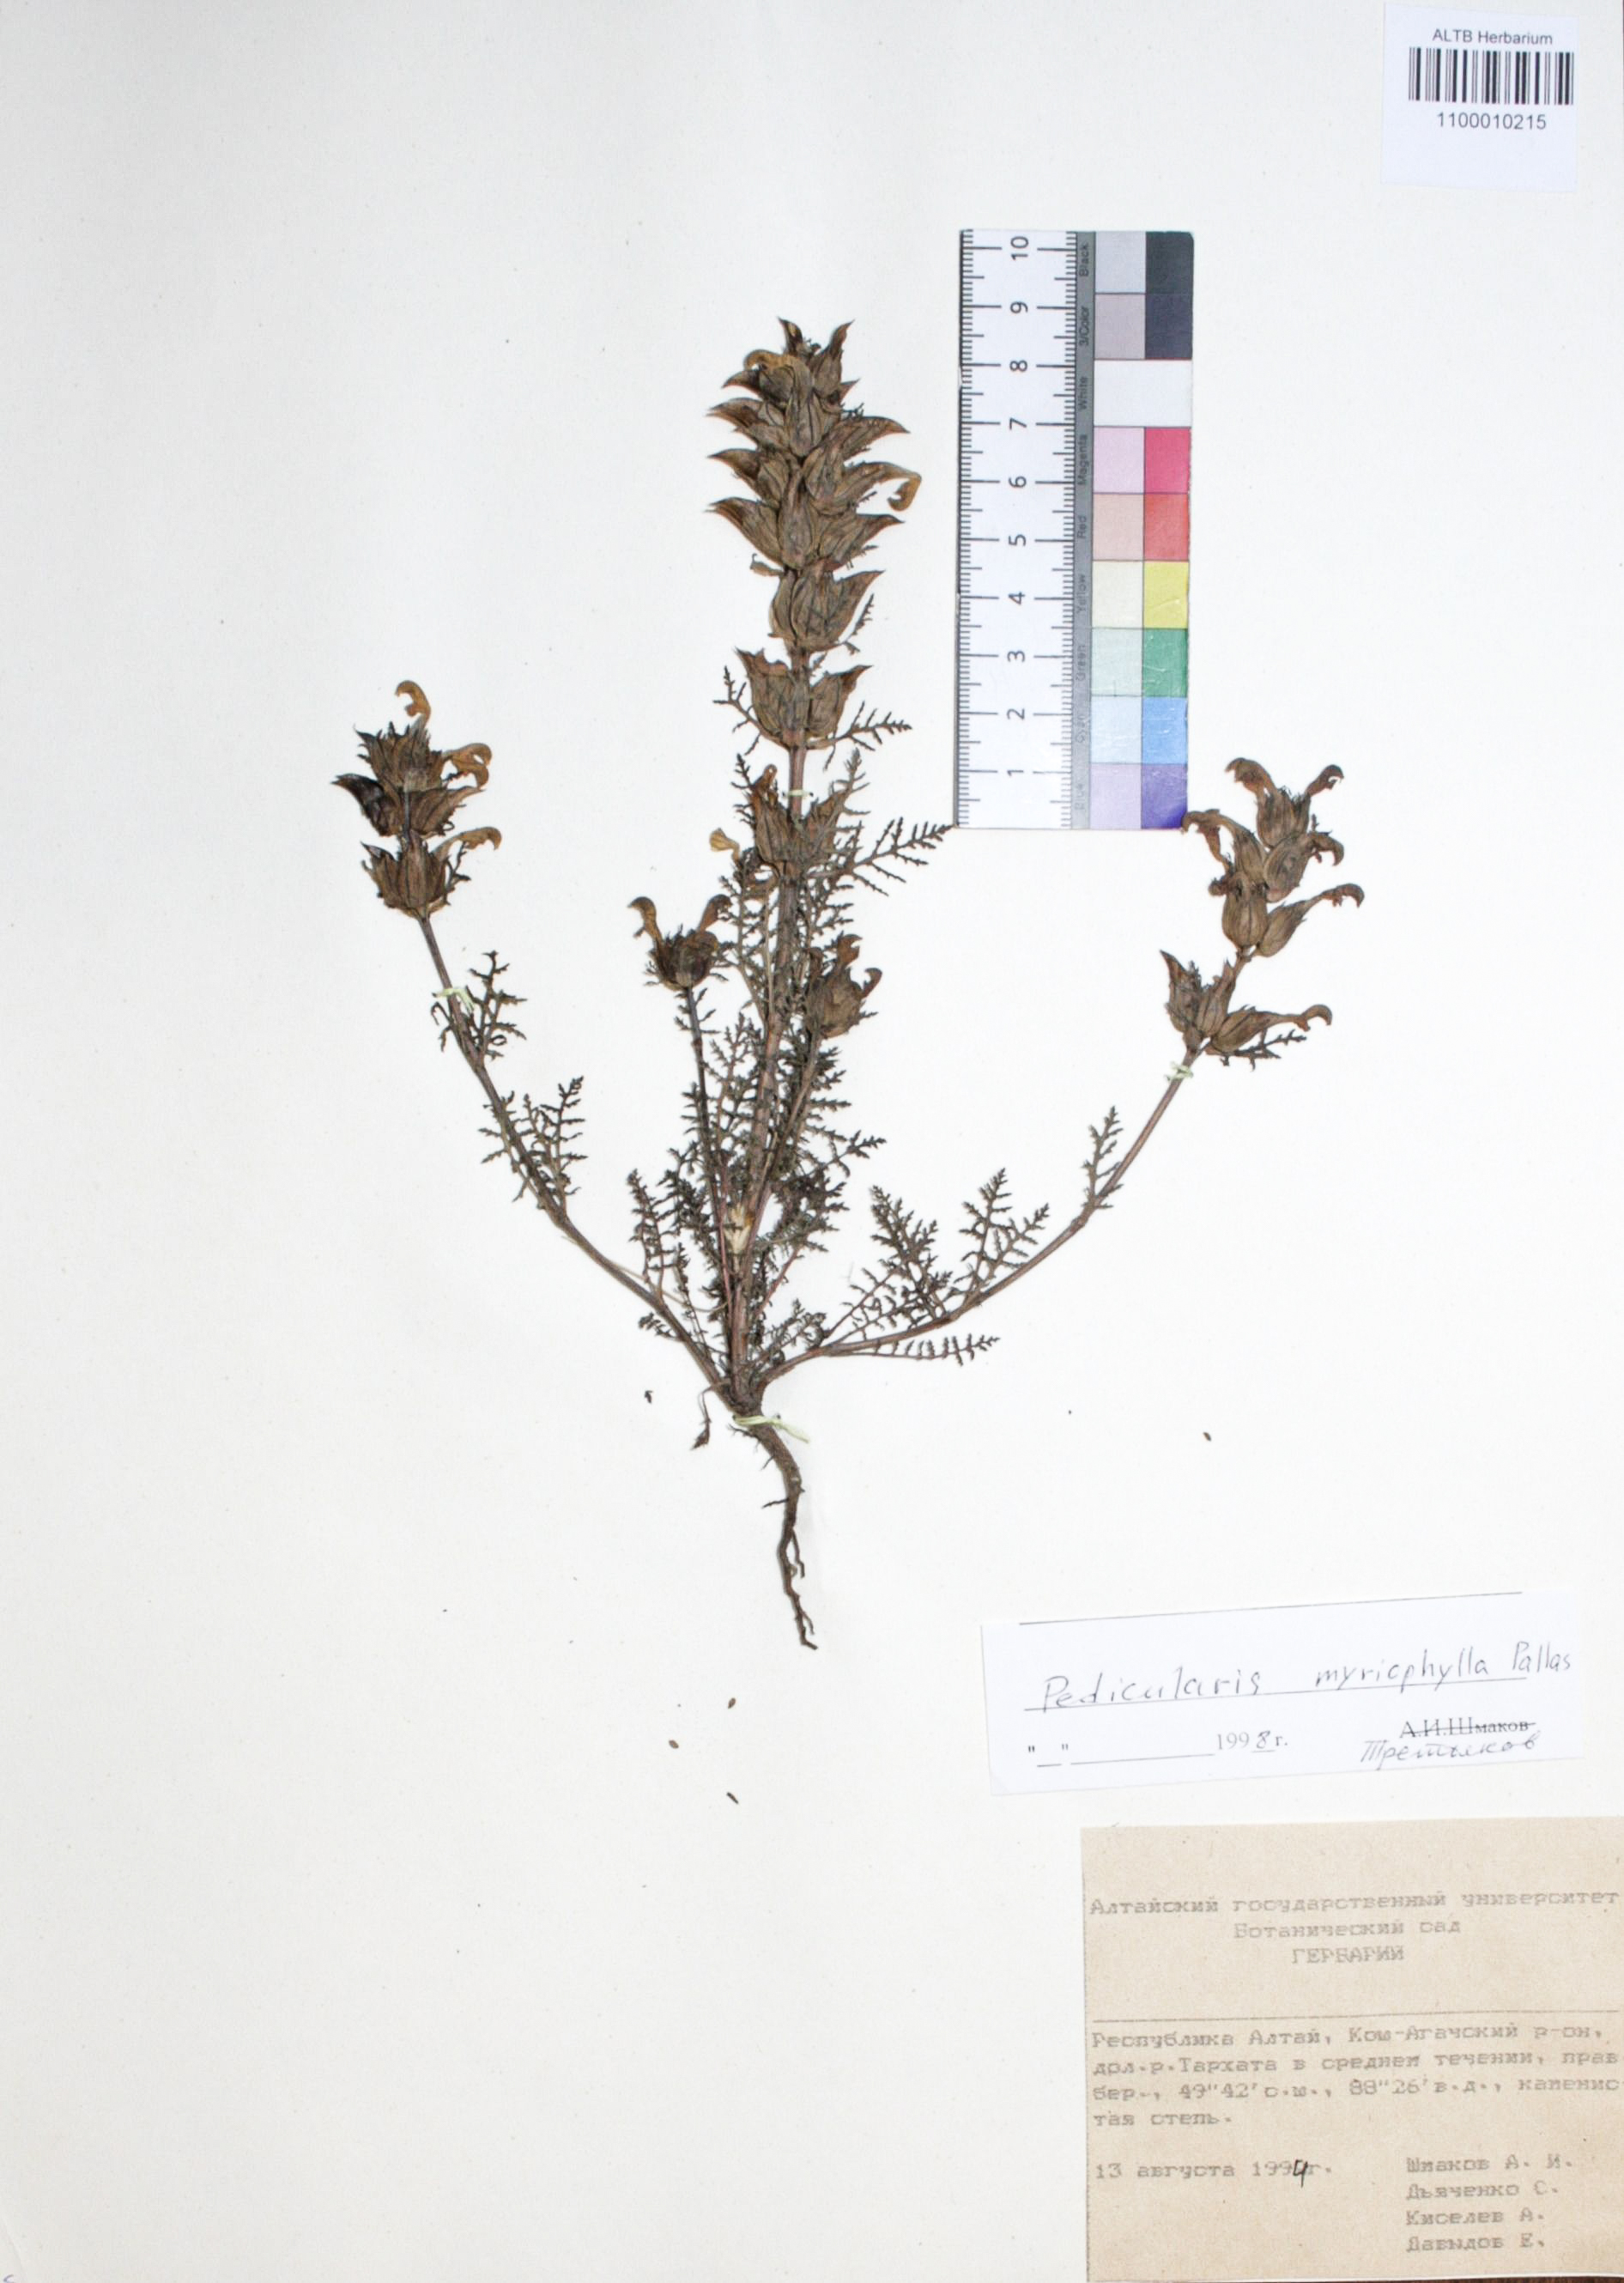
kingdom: Plantae
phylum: Tracheophyta
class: Magnoliopsida
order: Lamiales
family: Orobanchaceae
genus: Pedicularis
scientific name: Pedicularis myriophylla
